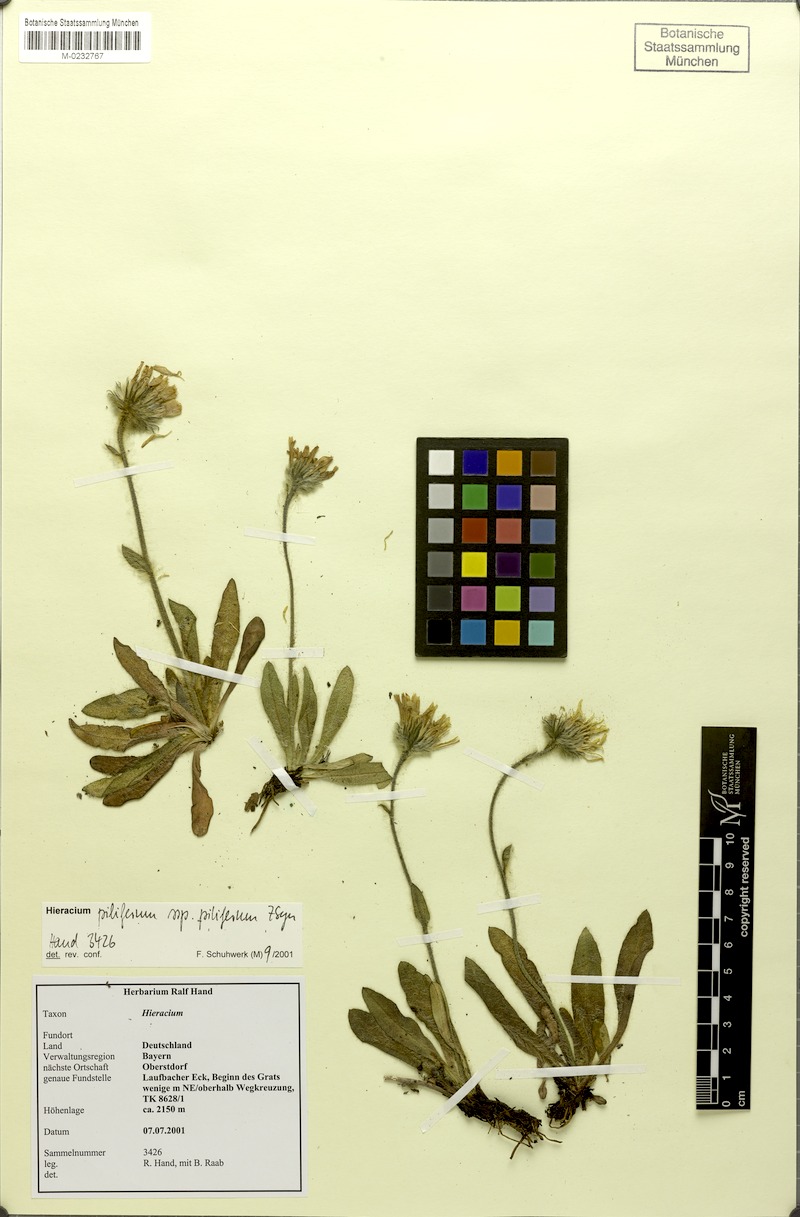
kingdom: Plantae
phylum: Tracheophyta
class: Magnoliopsida
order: Asterales
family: Asteraceae
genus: Hieracium
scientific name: Hieracium piliferum
